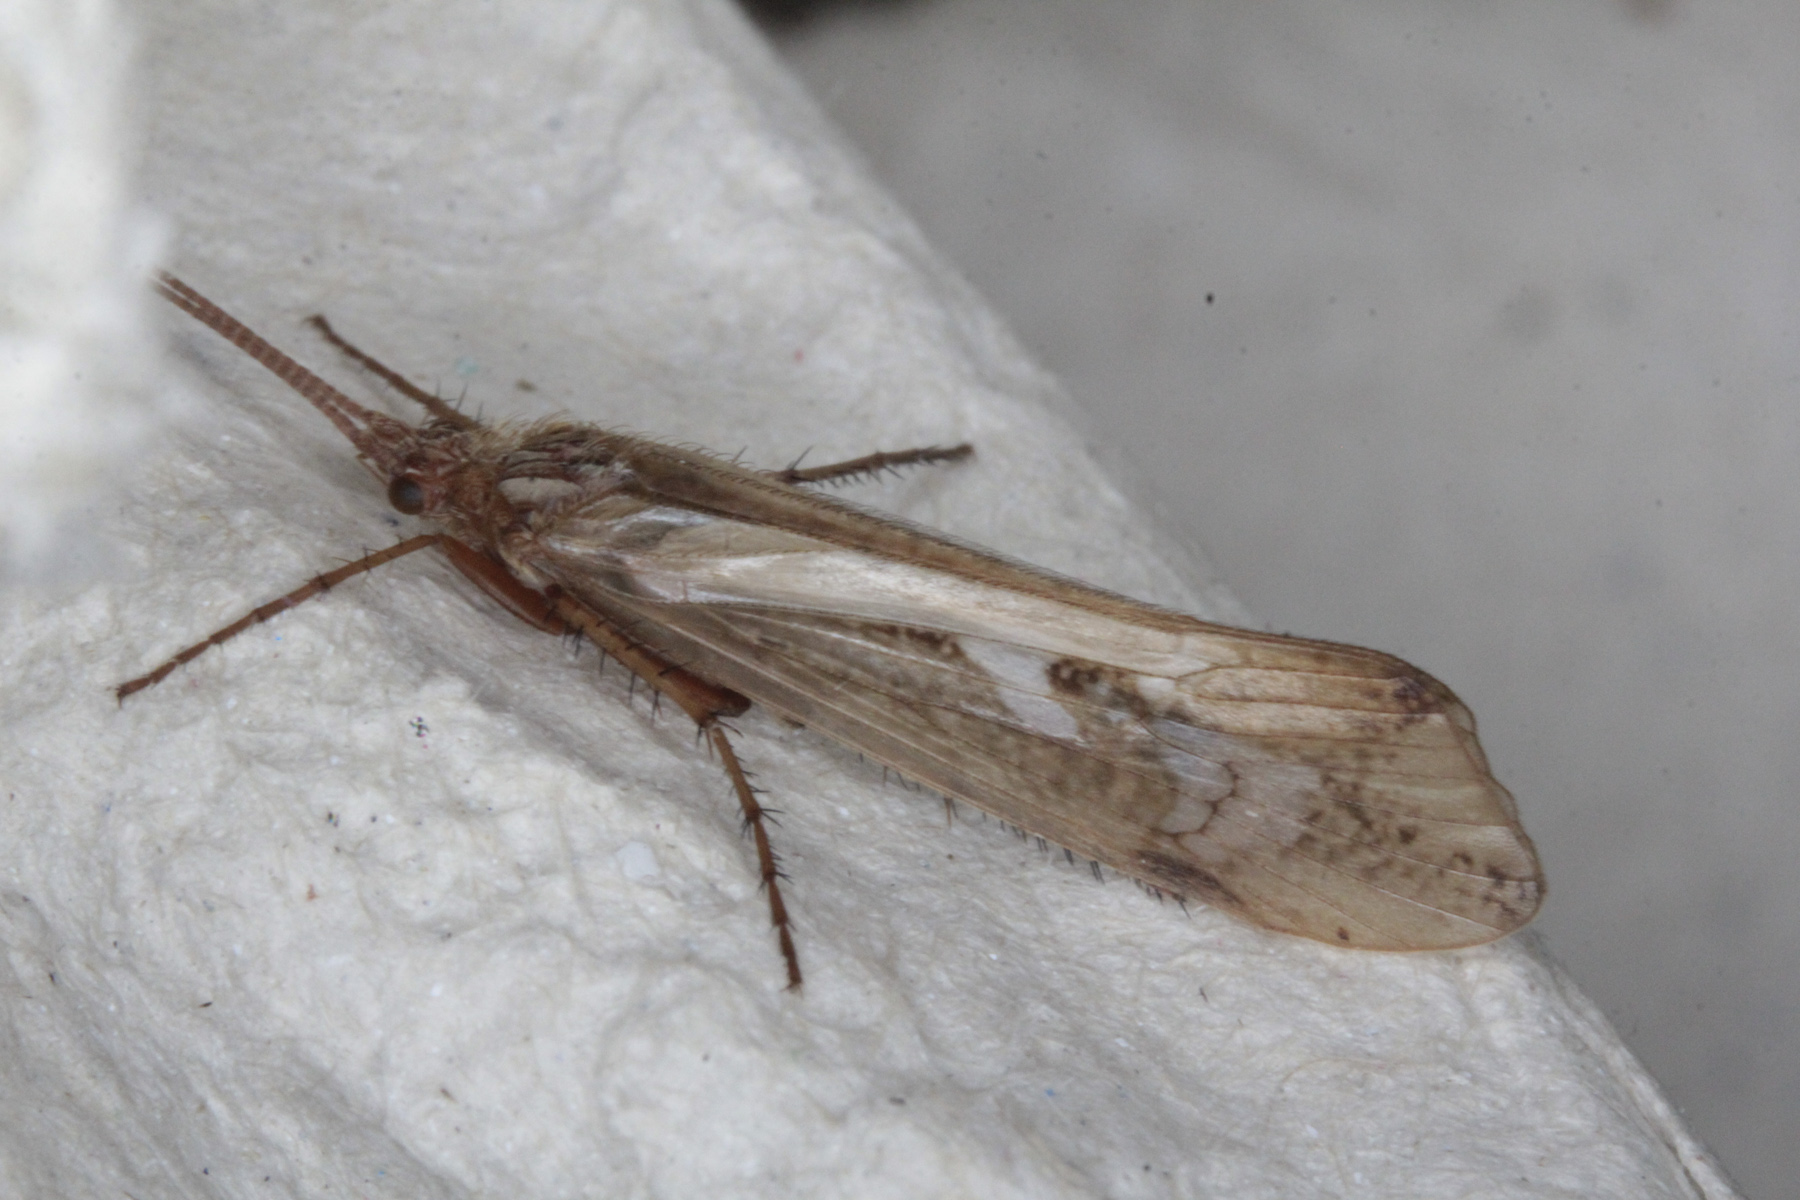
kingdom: Animalia
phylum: Arthropoda
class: Insecta
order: Trichoptera
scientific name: Trichoptera
